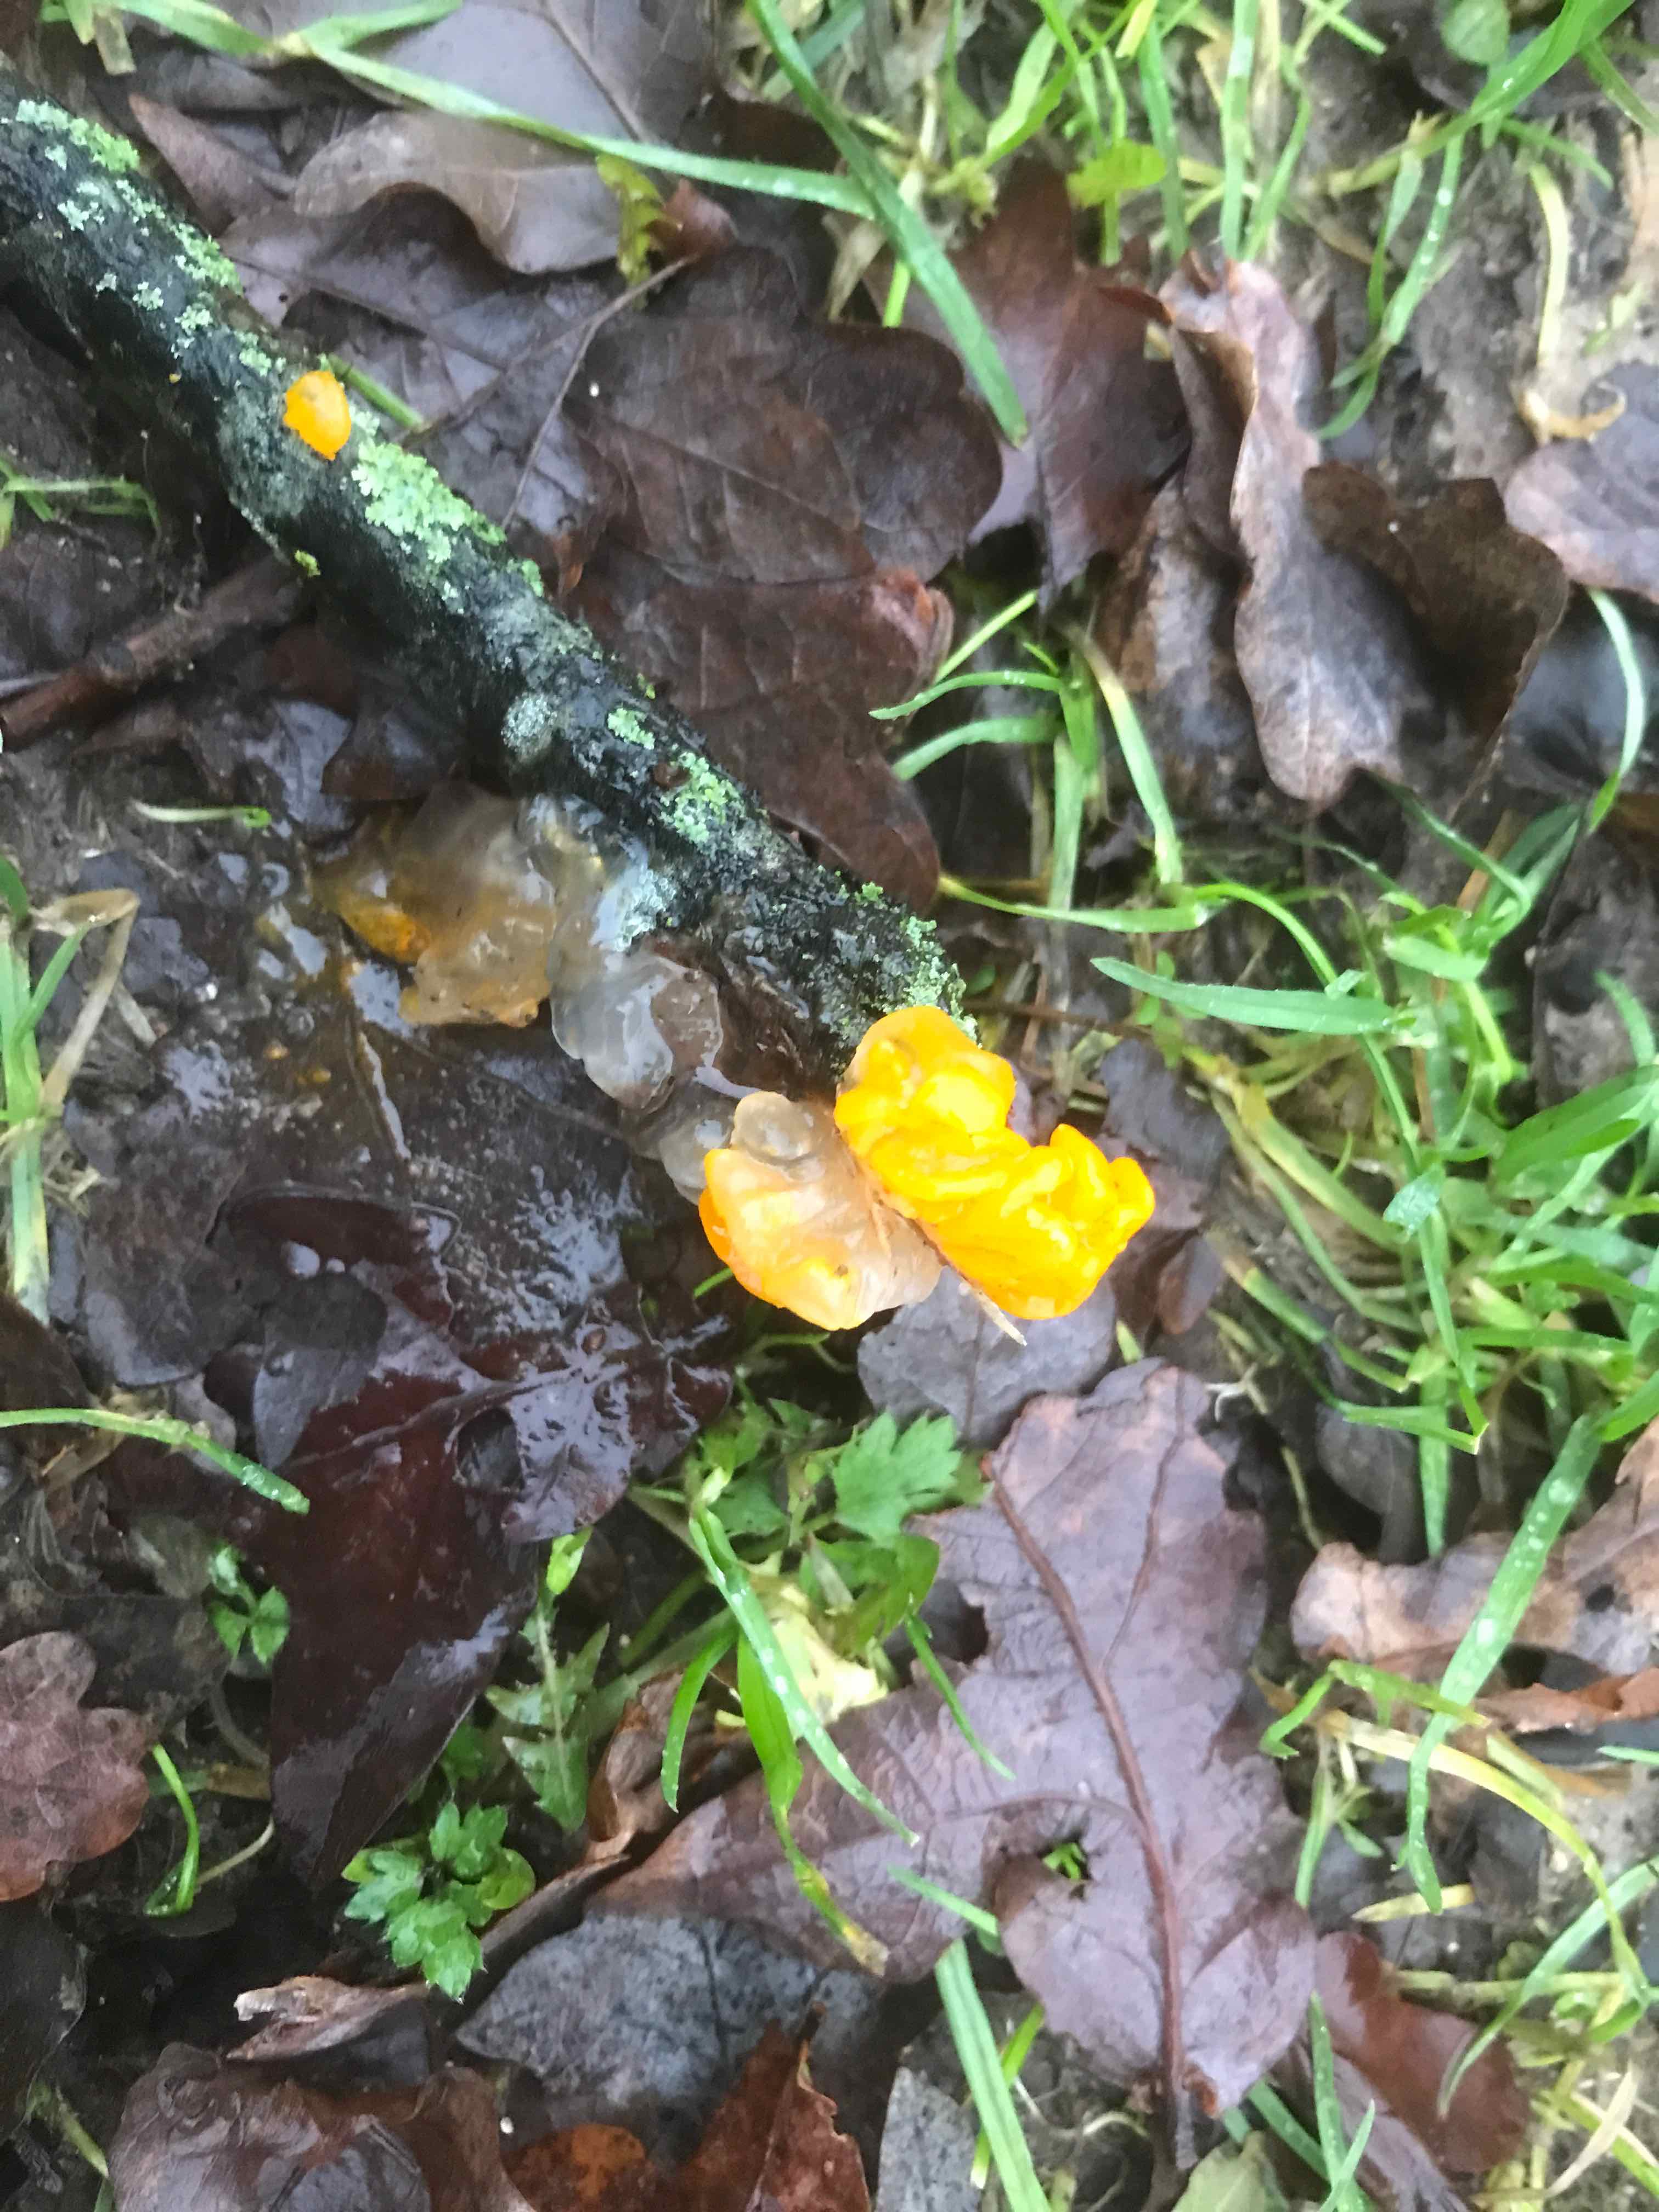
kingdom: Fungi
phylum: Basidiomycota
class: Tremellomycetes
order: Tremellales
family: Tremellaceae
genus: Tremella
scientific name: Tremella mesenterica
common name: gul bævresvamp
